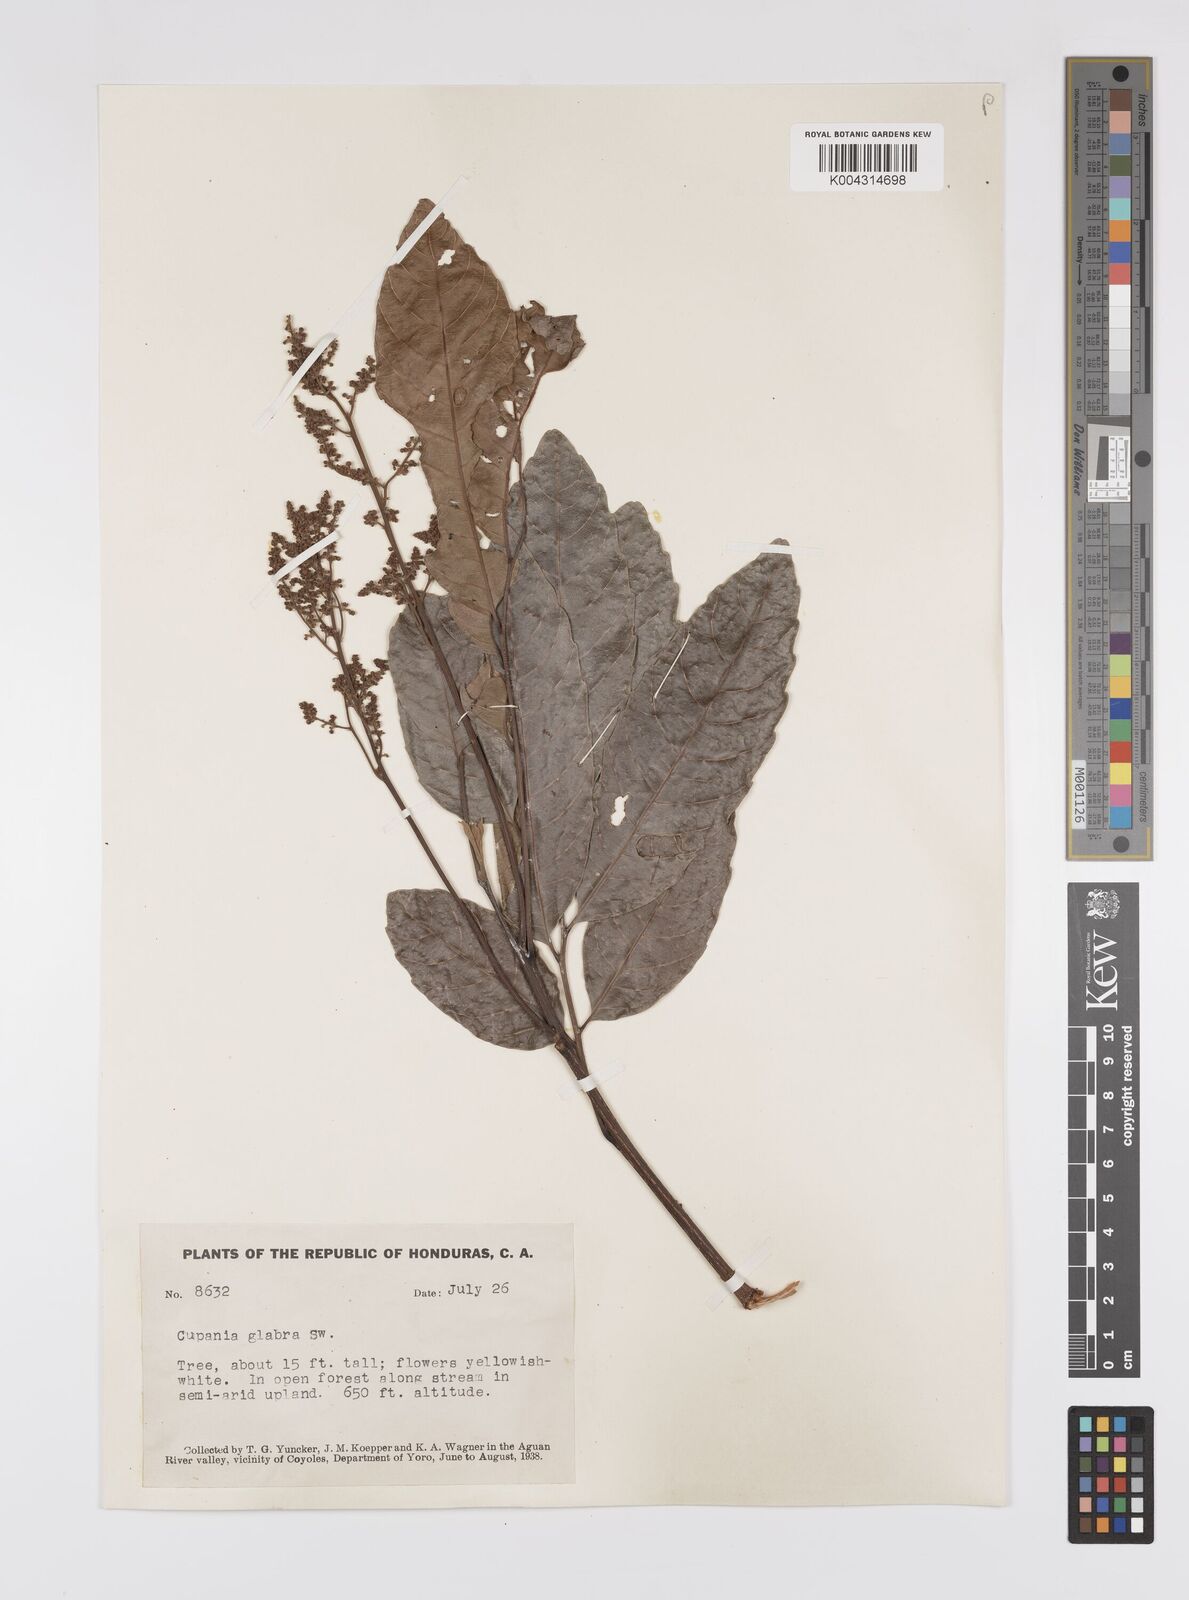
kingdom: Plantae
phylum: Tracheophyta
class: Magnoliopsida
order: Sapindales
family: Sapindaceae
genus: Cupania
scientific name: Cupania
